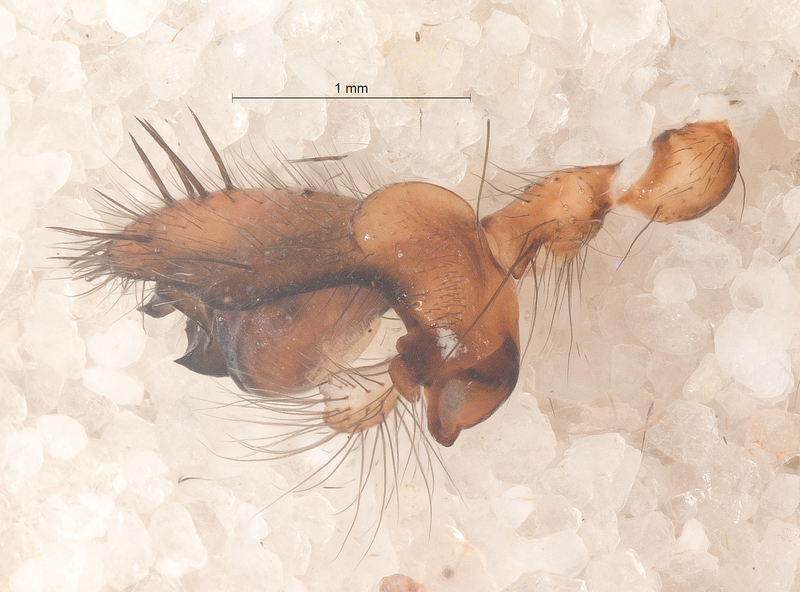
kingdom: Animalia
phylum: Arthropoda
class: Arachnida
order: Araneae
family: Tetragnathidae
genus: Meta
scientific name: Meta menardi
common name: Cave spider
